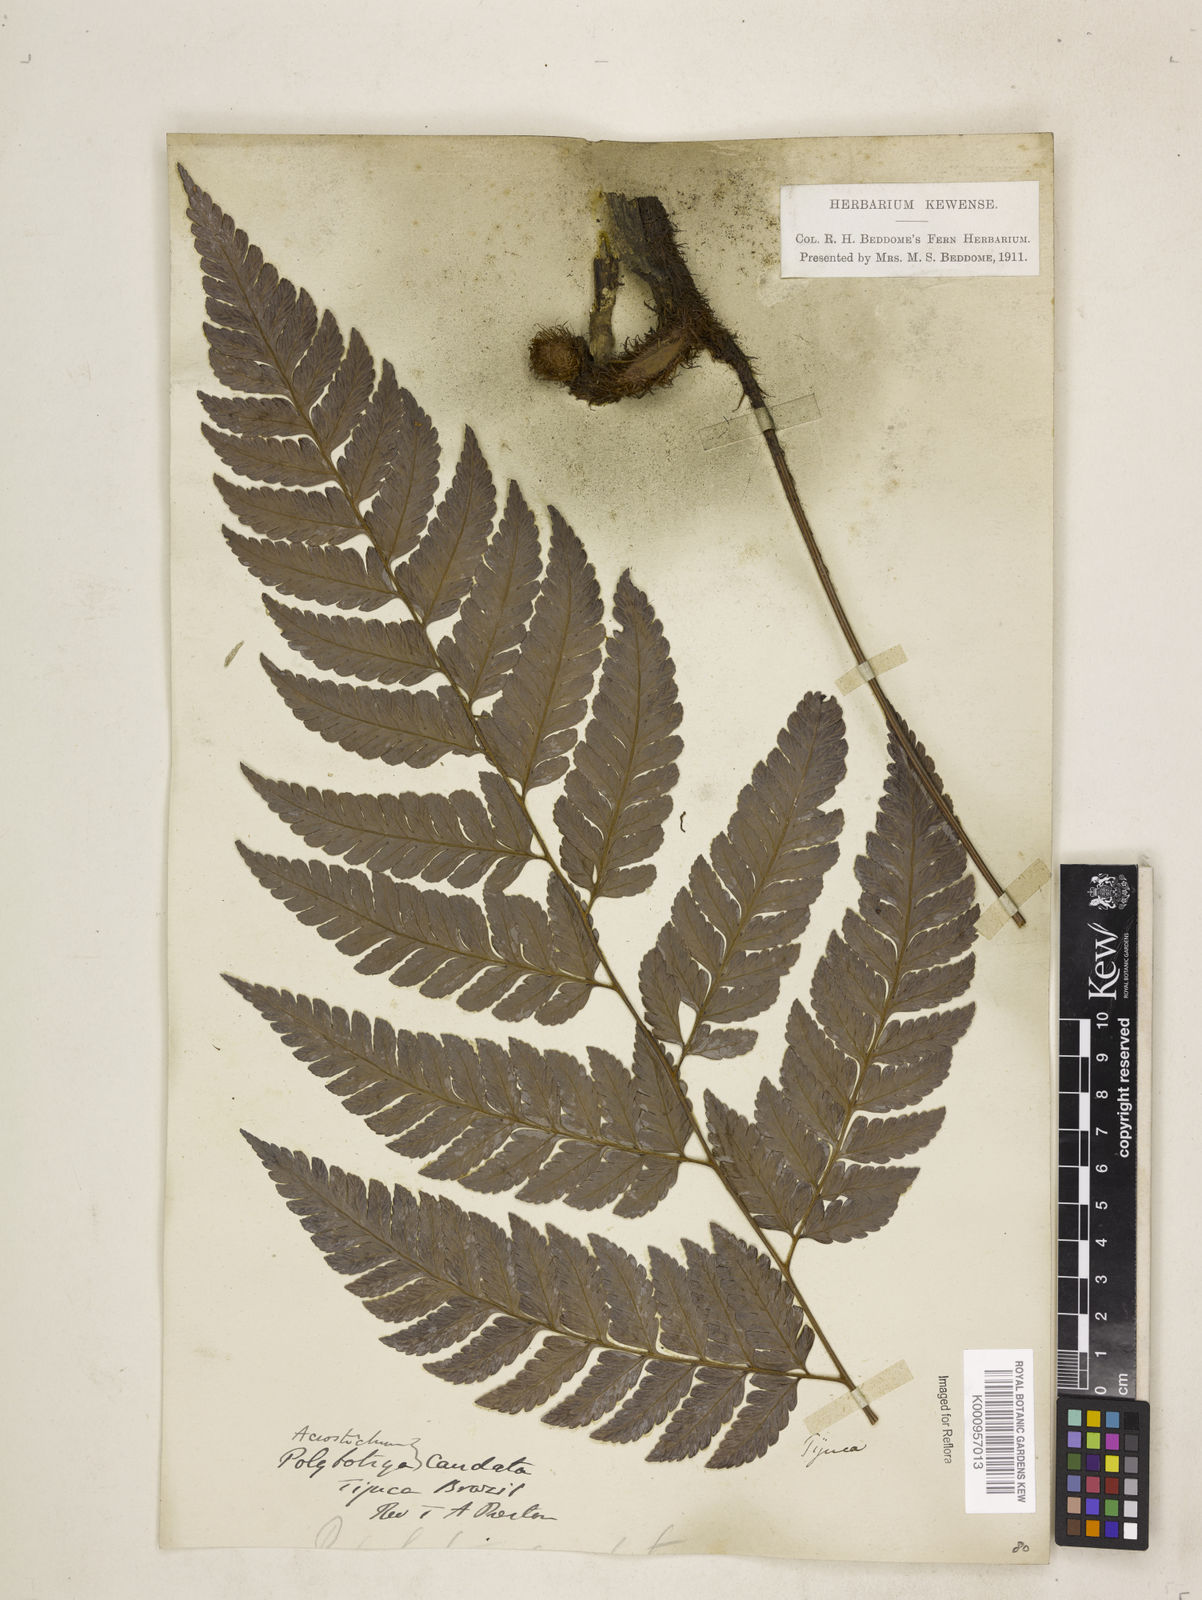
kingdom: Plantae
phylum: Tracheophyta
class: Polypodiopsida
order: Polypodiales
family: Dryopteridaceae
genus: Polybotrya
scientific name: Polybotrya caudata
